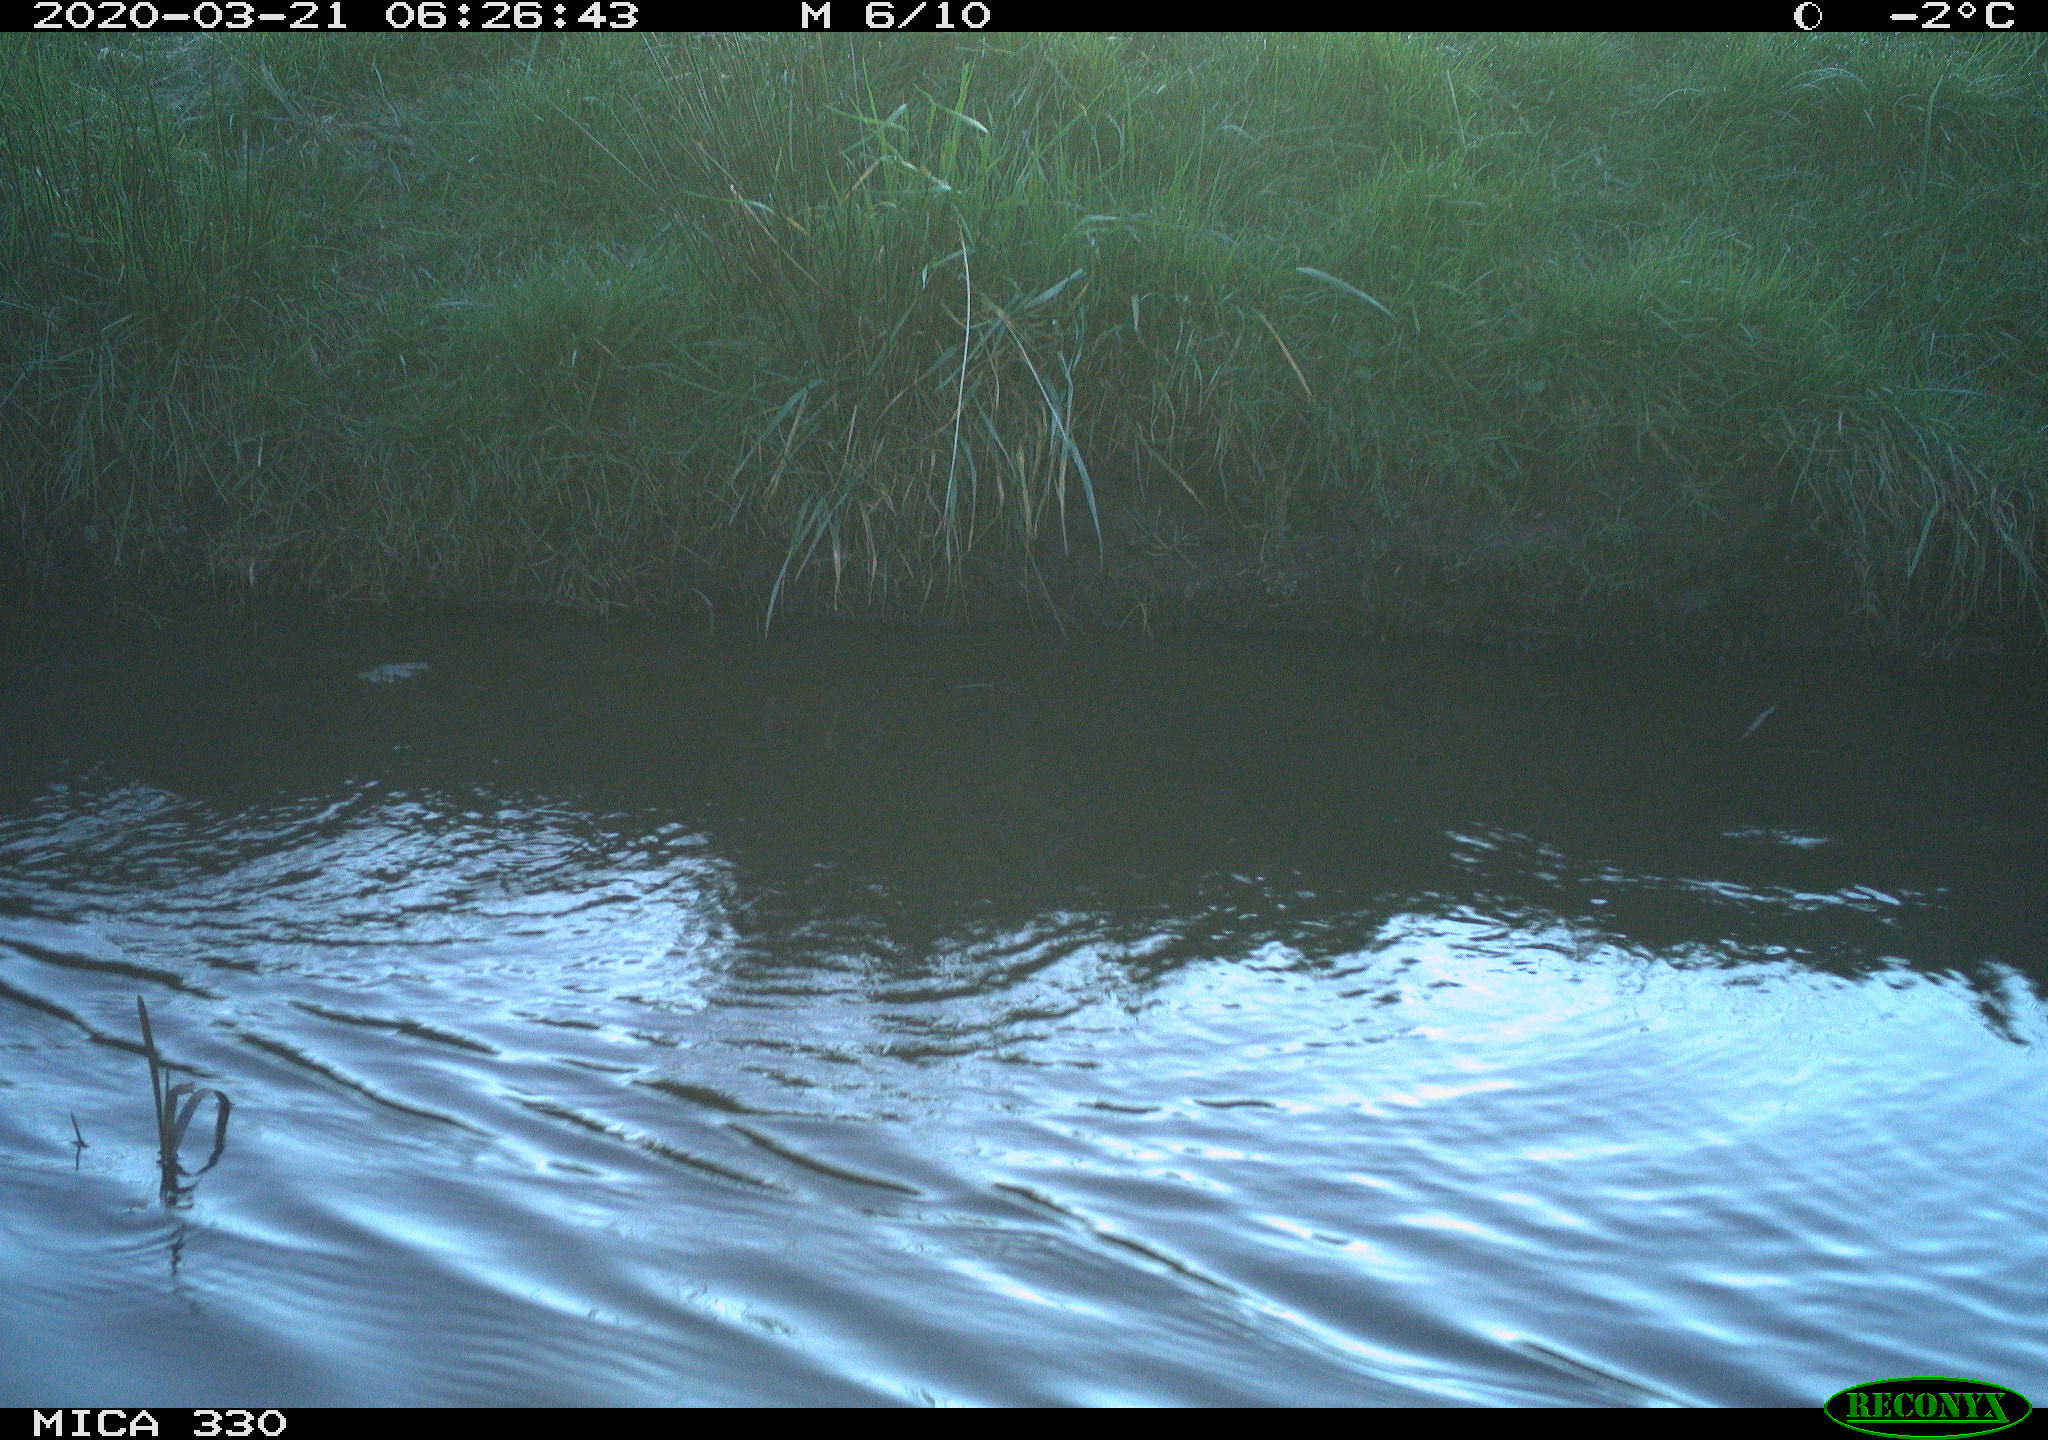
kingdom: Animalia
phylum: Chordata
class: Aves
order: Anseriformes
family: Anatidae
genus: Anas
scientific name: Anas platyrhynchos
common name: Mallard
